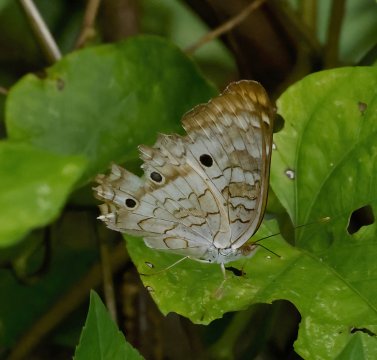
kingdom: Animalia
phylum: Arthropoda
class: Insecta
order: Lepidoptera
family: Nymphalidae
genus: Anartia
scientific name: Anartia jatrophae
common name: White Peacock
